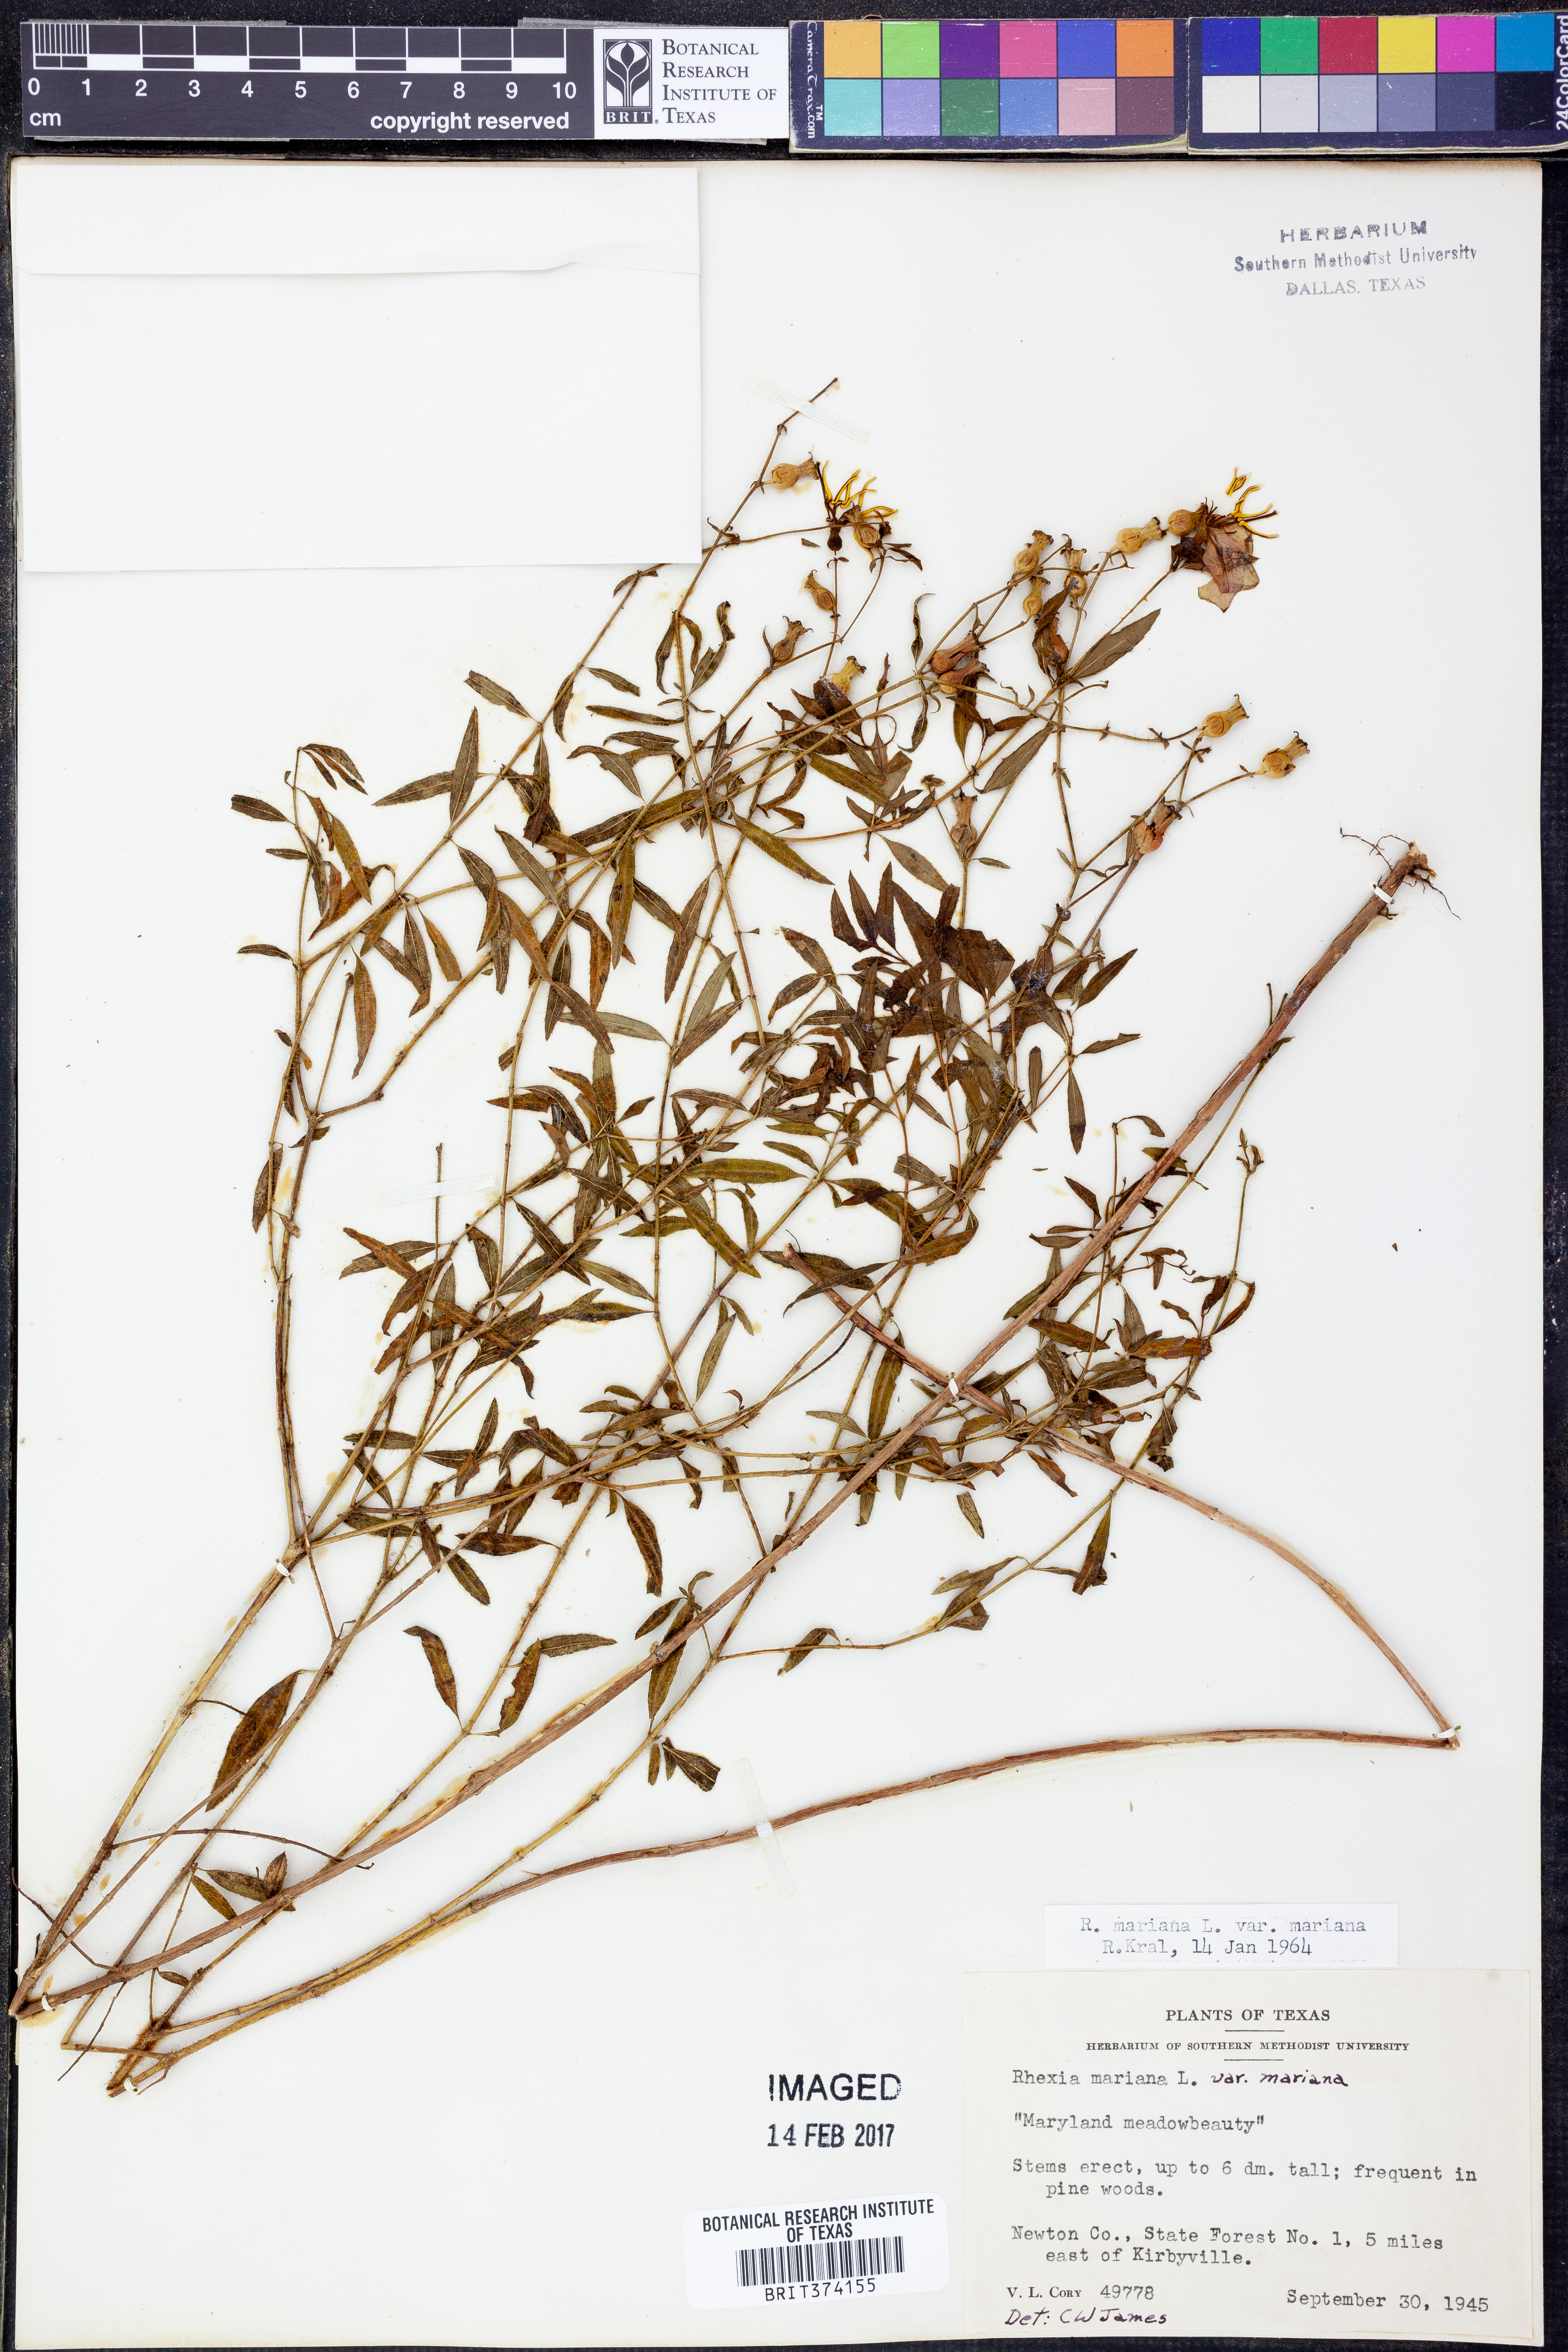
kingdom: Plantae
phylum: Tracheophyta
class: Magnoliopsida
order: Myrtales
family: Melastomataceae
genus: Rhexia
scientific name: Rhexia mariana
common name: Dull meadow-pitcher
